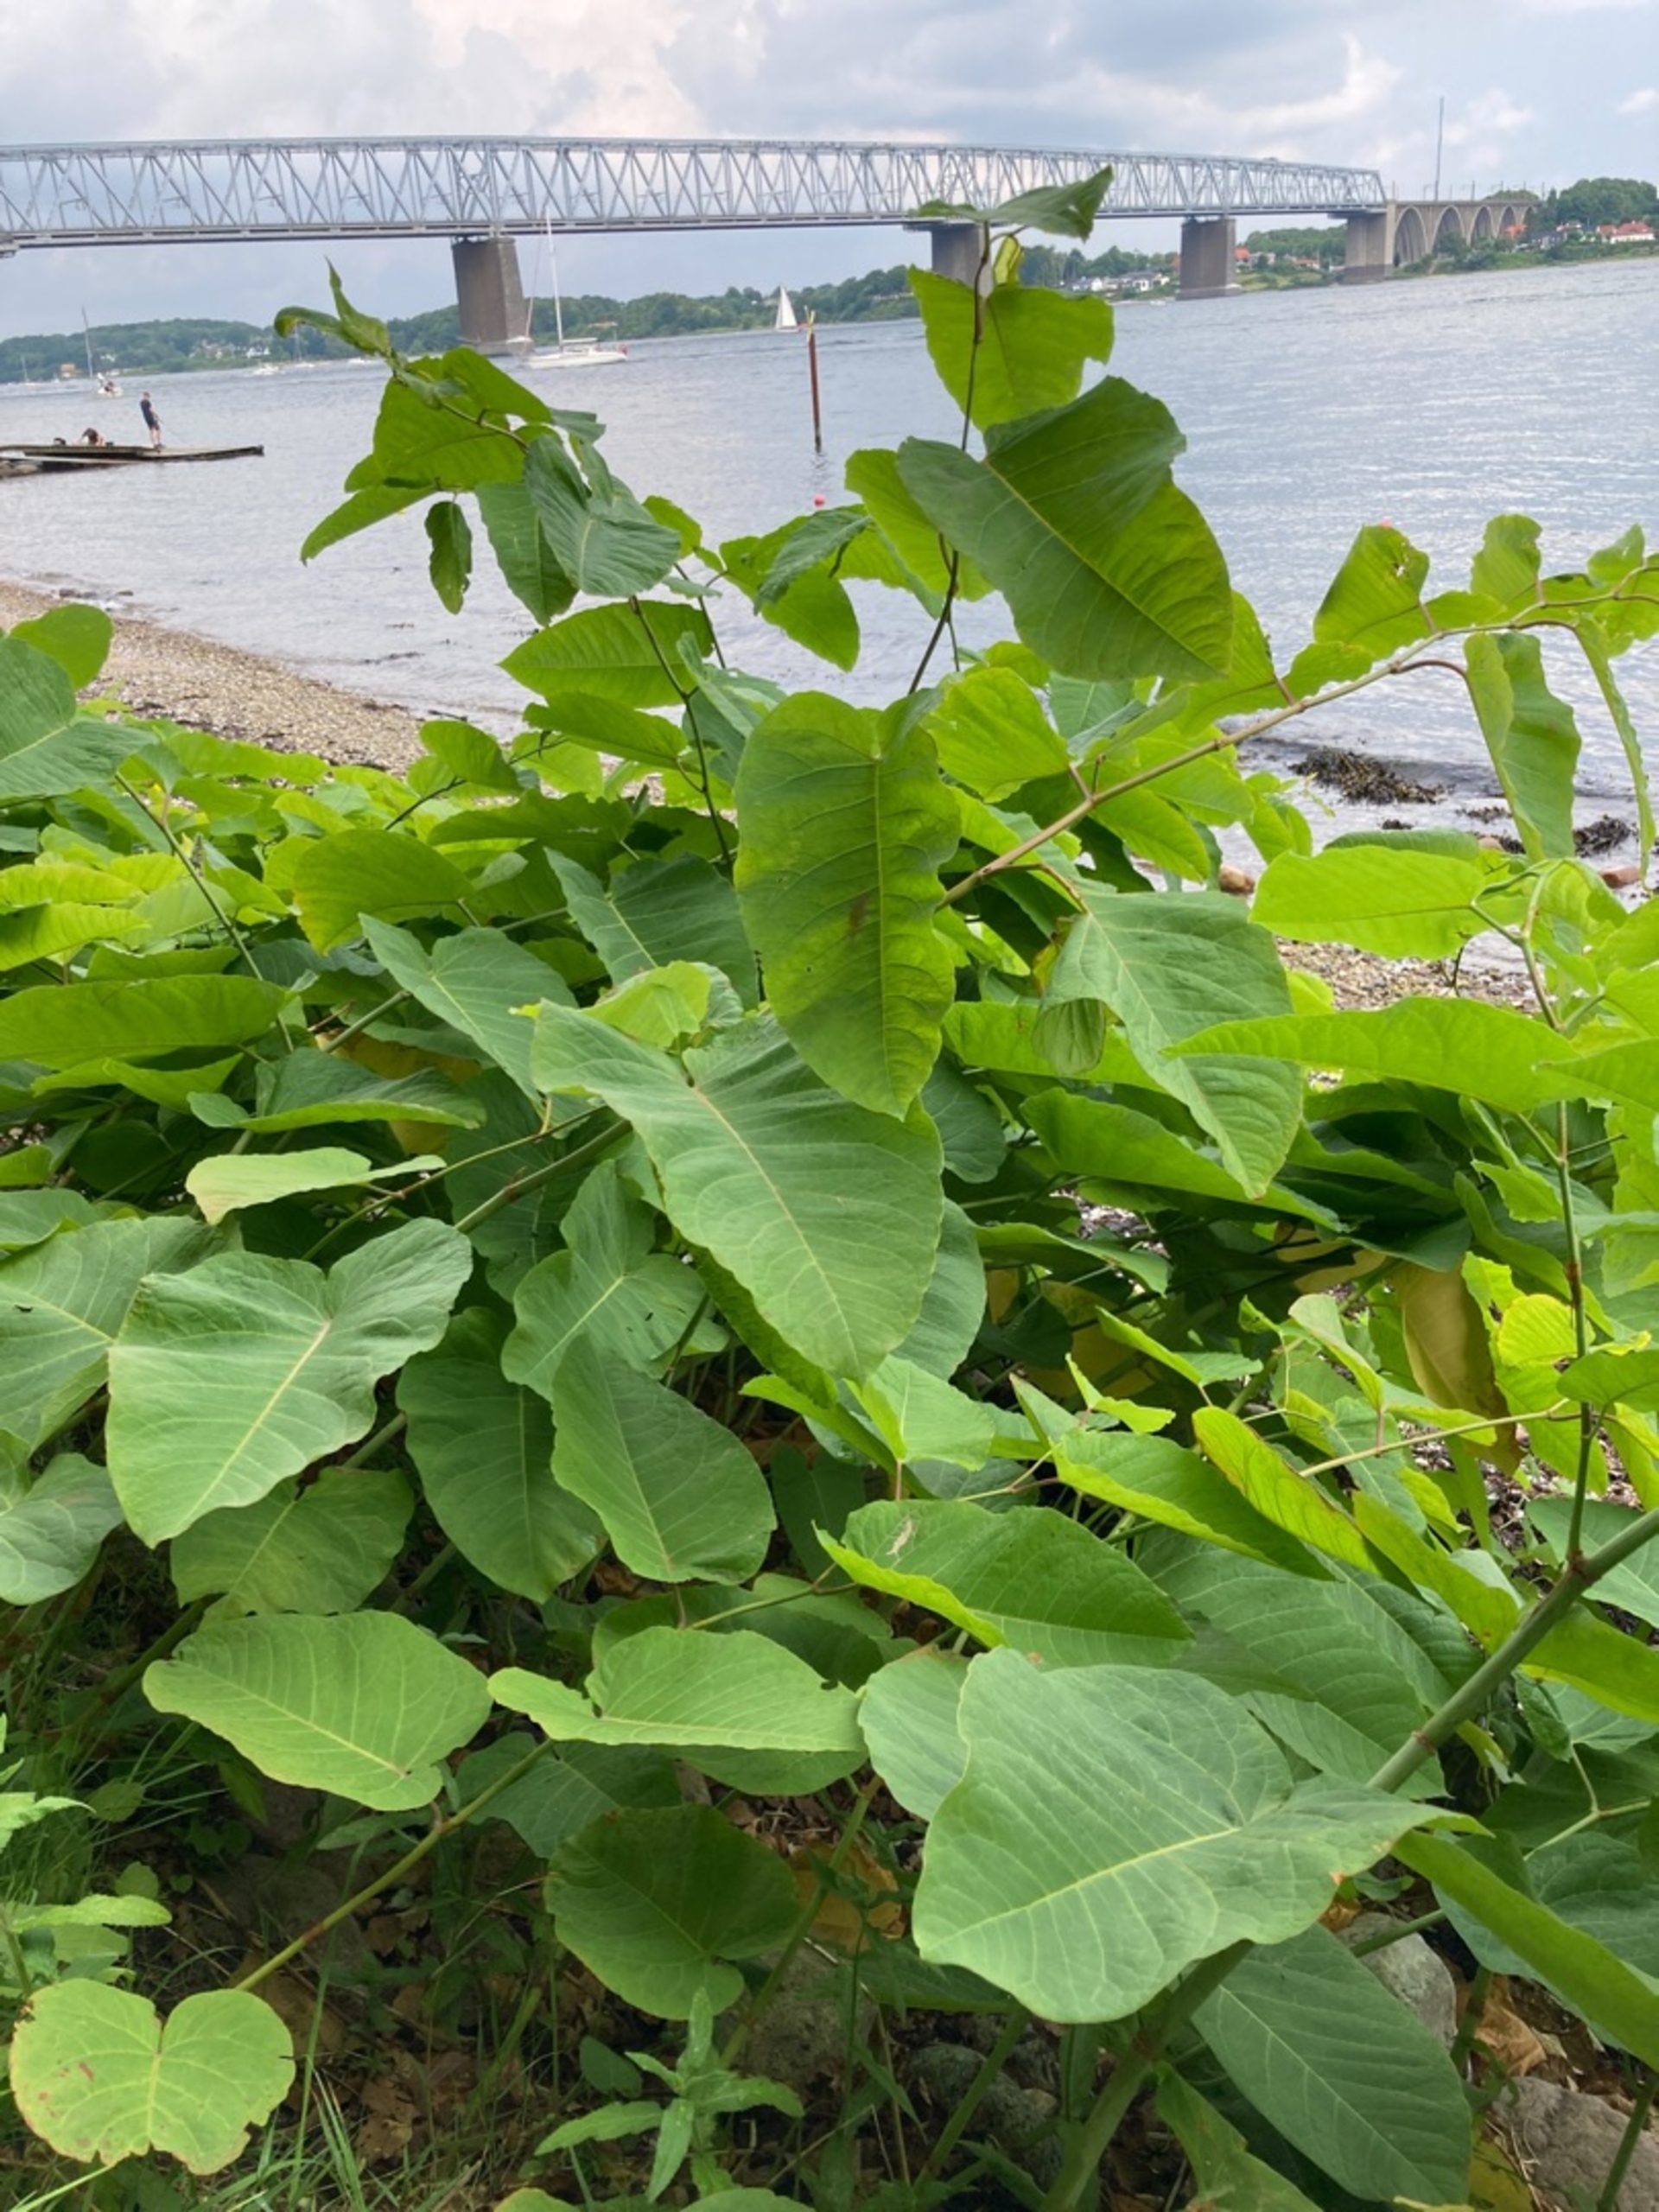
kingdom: Plantae
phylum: Tracheophyta
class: Magnoliopsida
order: Caryophyllales
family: Polygonaceae
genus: Reynoutria
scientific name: Reynoutria sachalinensis
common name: Kæmpe-pileurt
